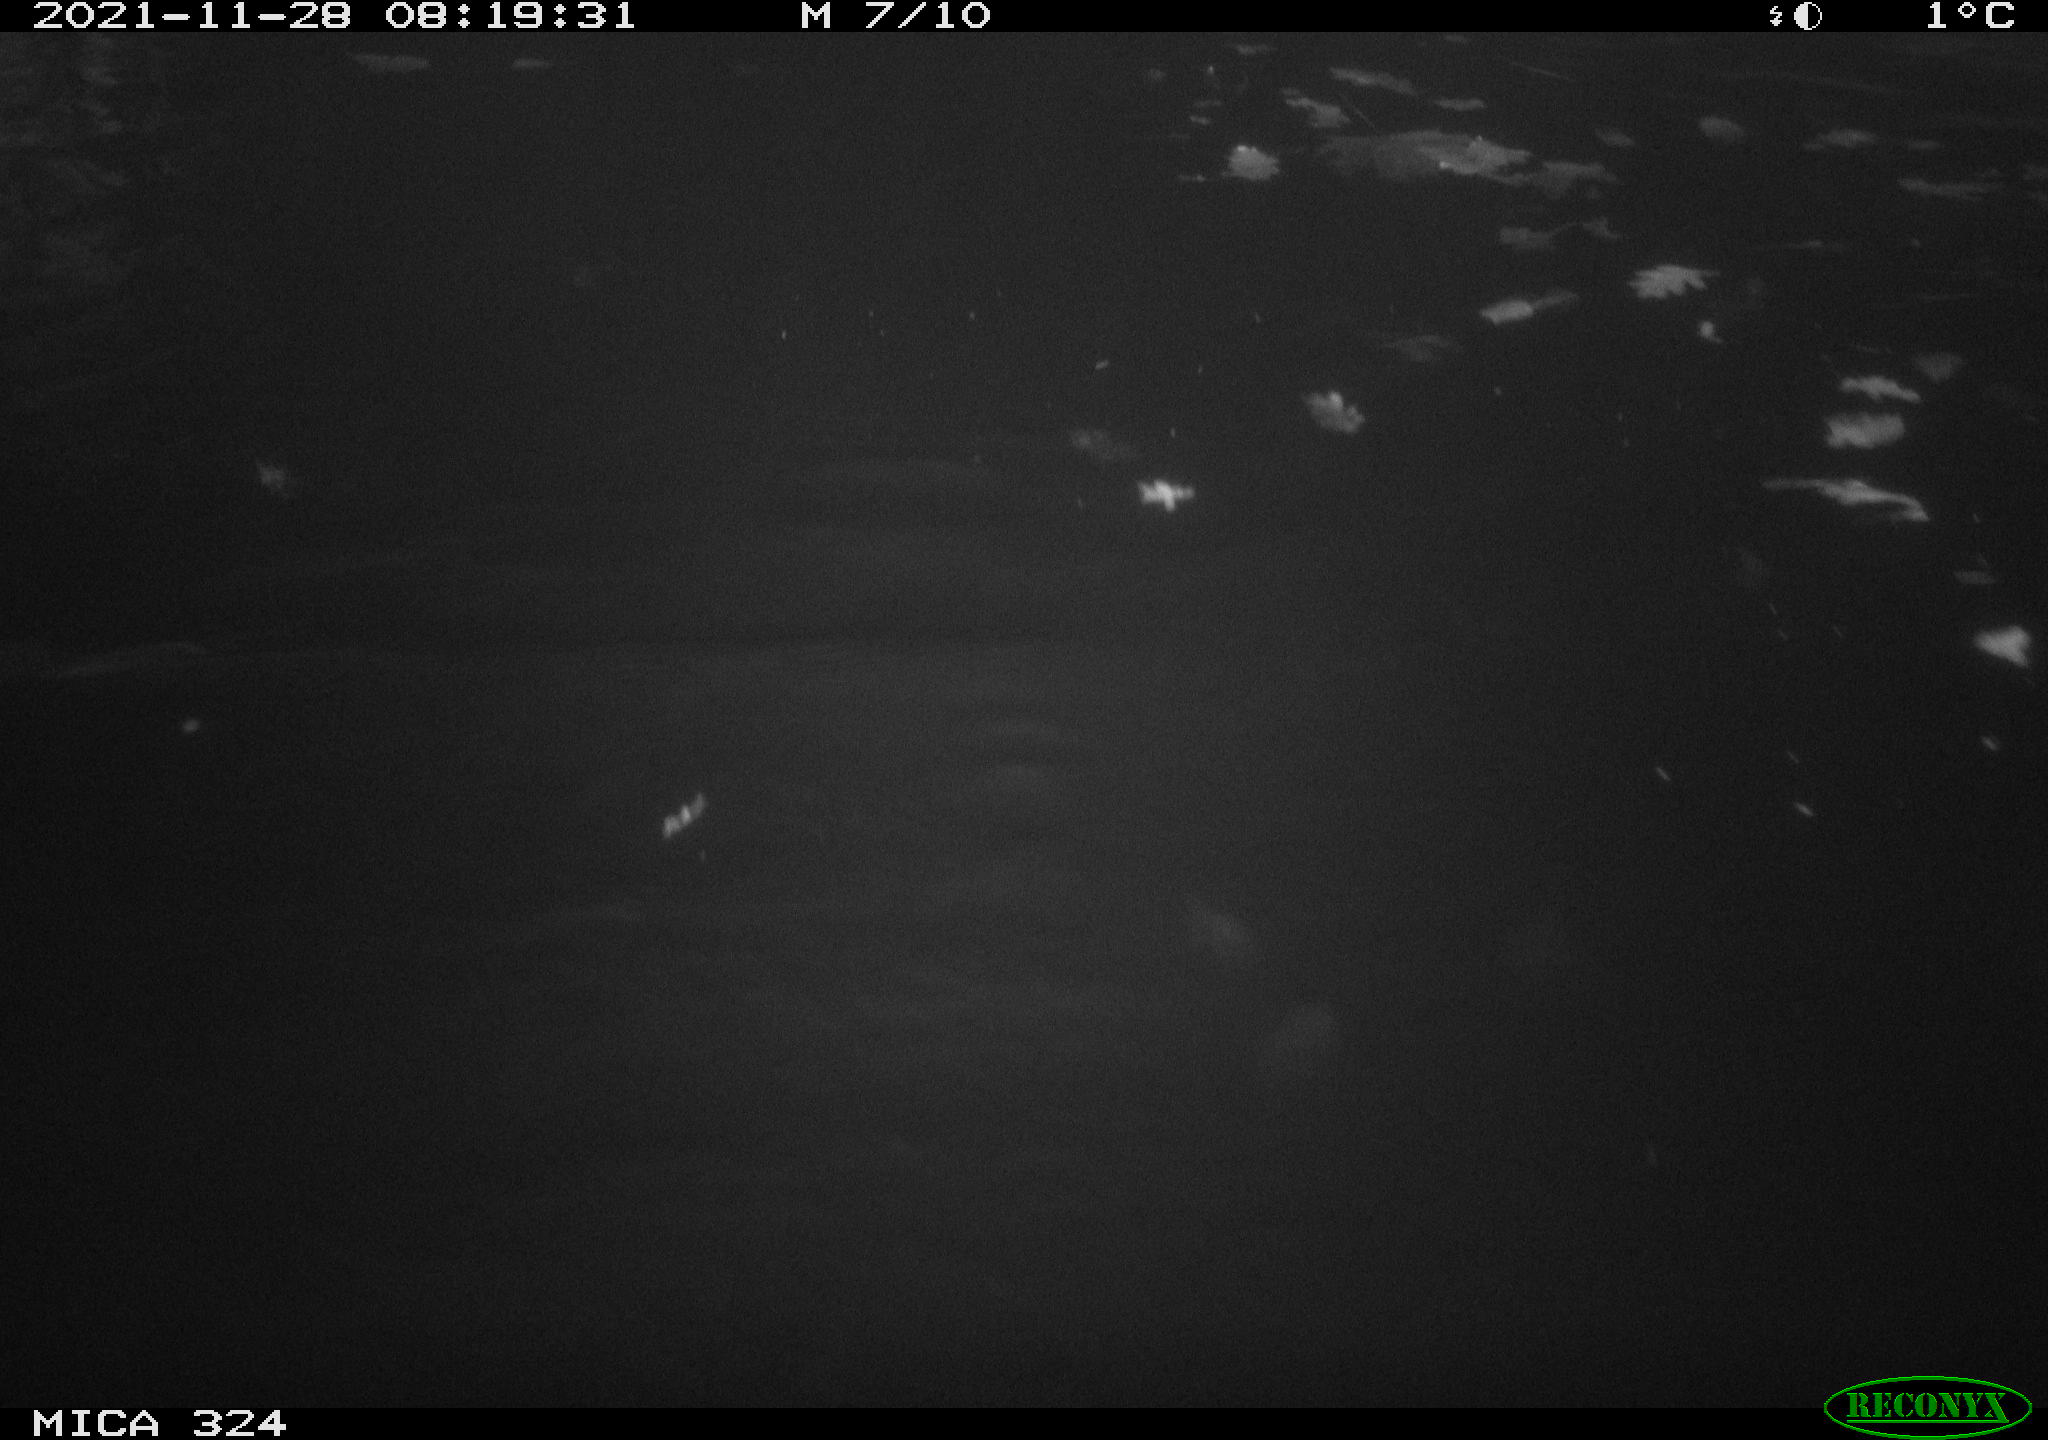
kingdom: Animalia
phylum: Chordata
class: Aves
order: Anseriformes
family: Anatidae
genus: Anas
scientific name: Anas platyrhynchos
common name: Mallard
